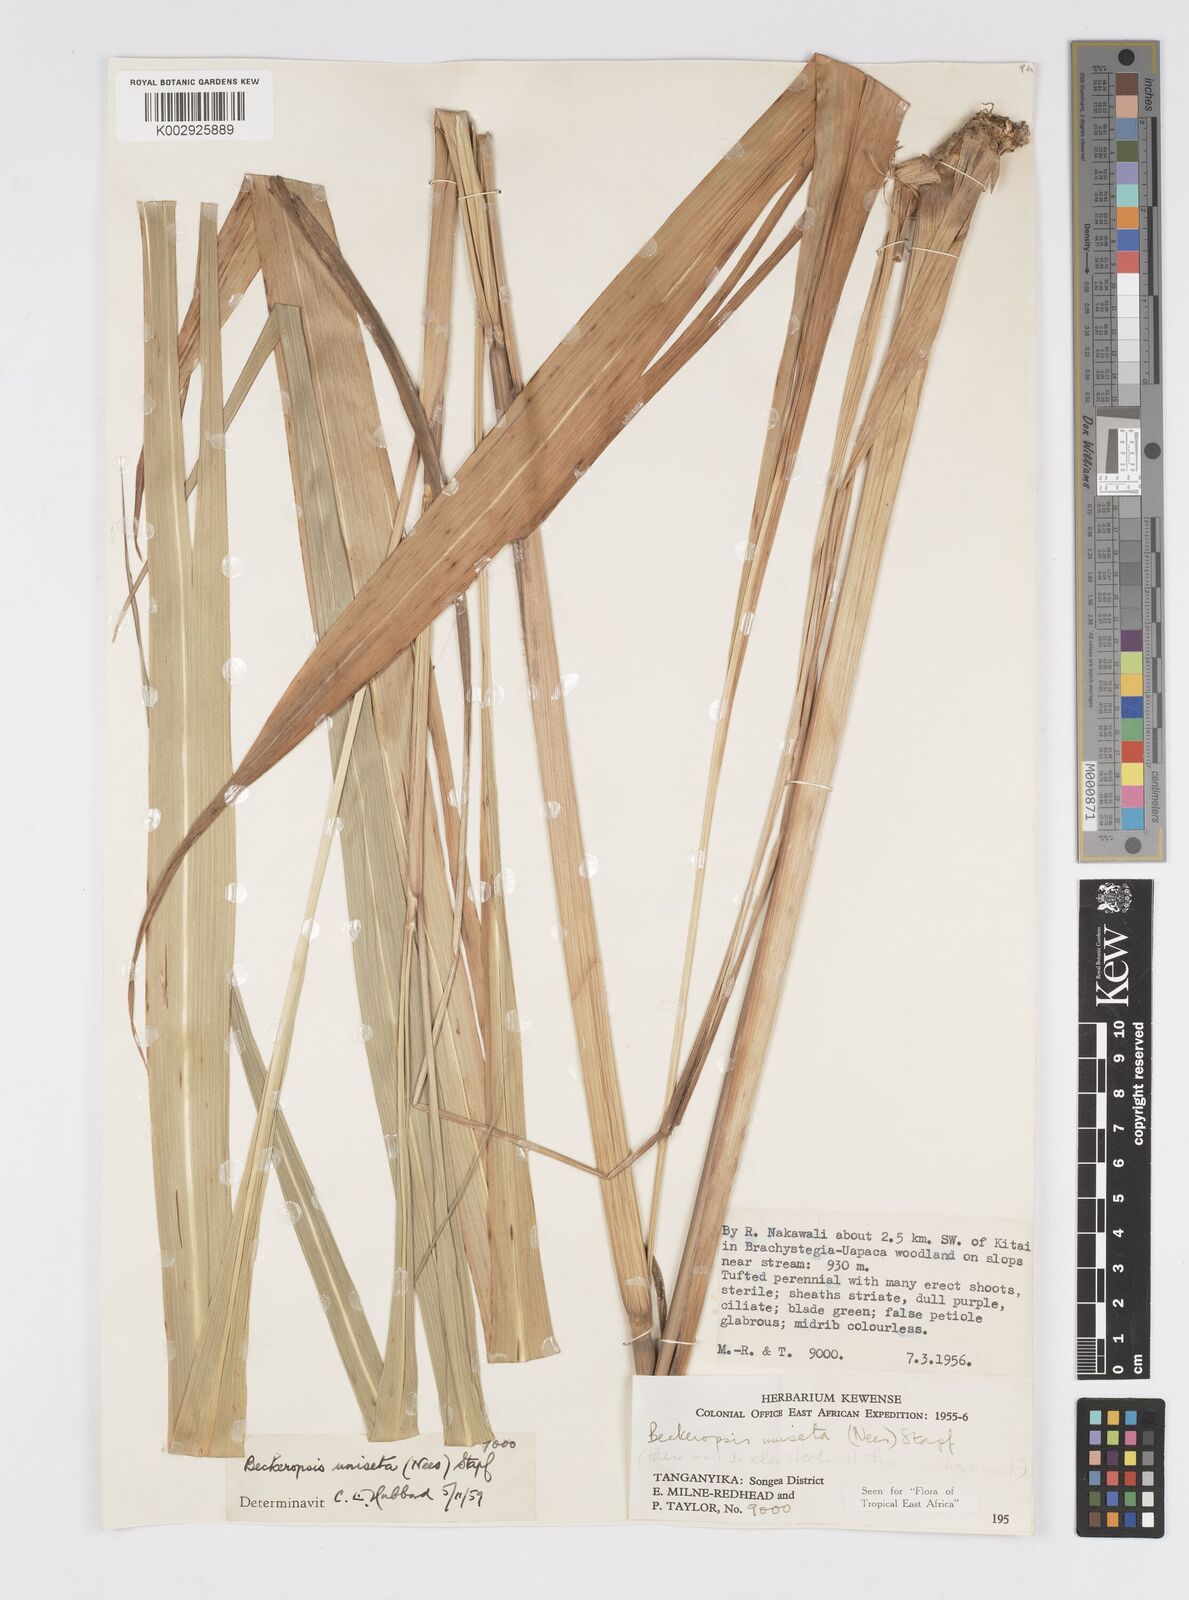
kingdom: Plantae
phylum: Tracheophyta
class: Liliopsida
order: Poales
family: Poaceae
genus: Cenchrus
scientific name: Cenchrus Pennisetum spec
